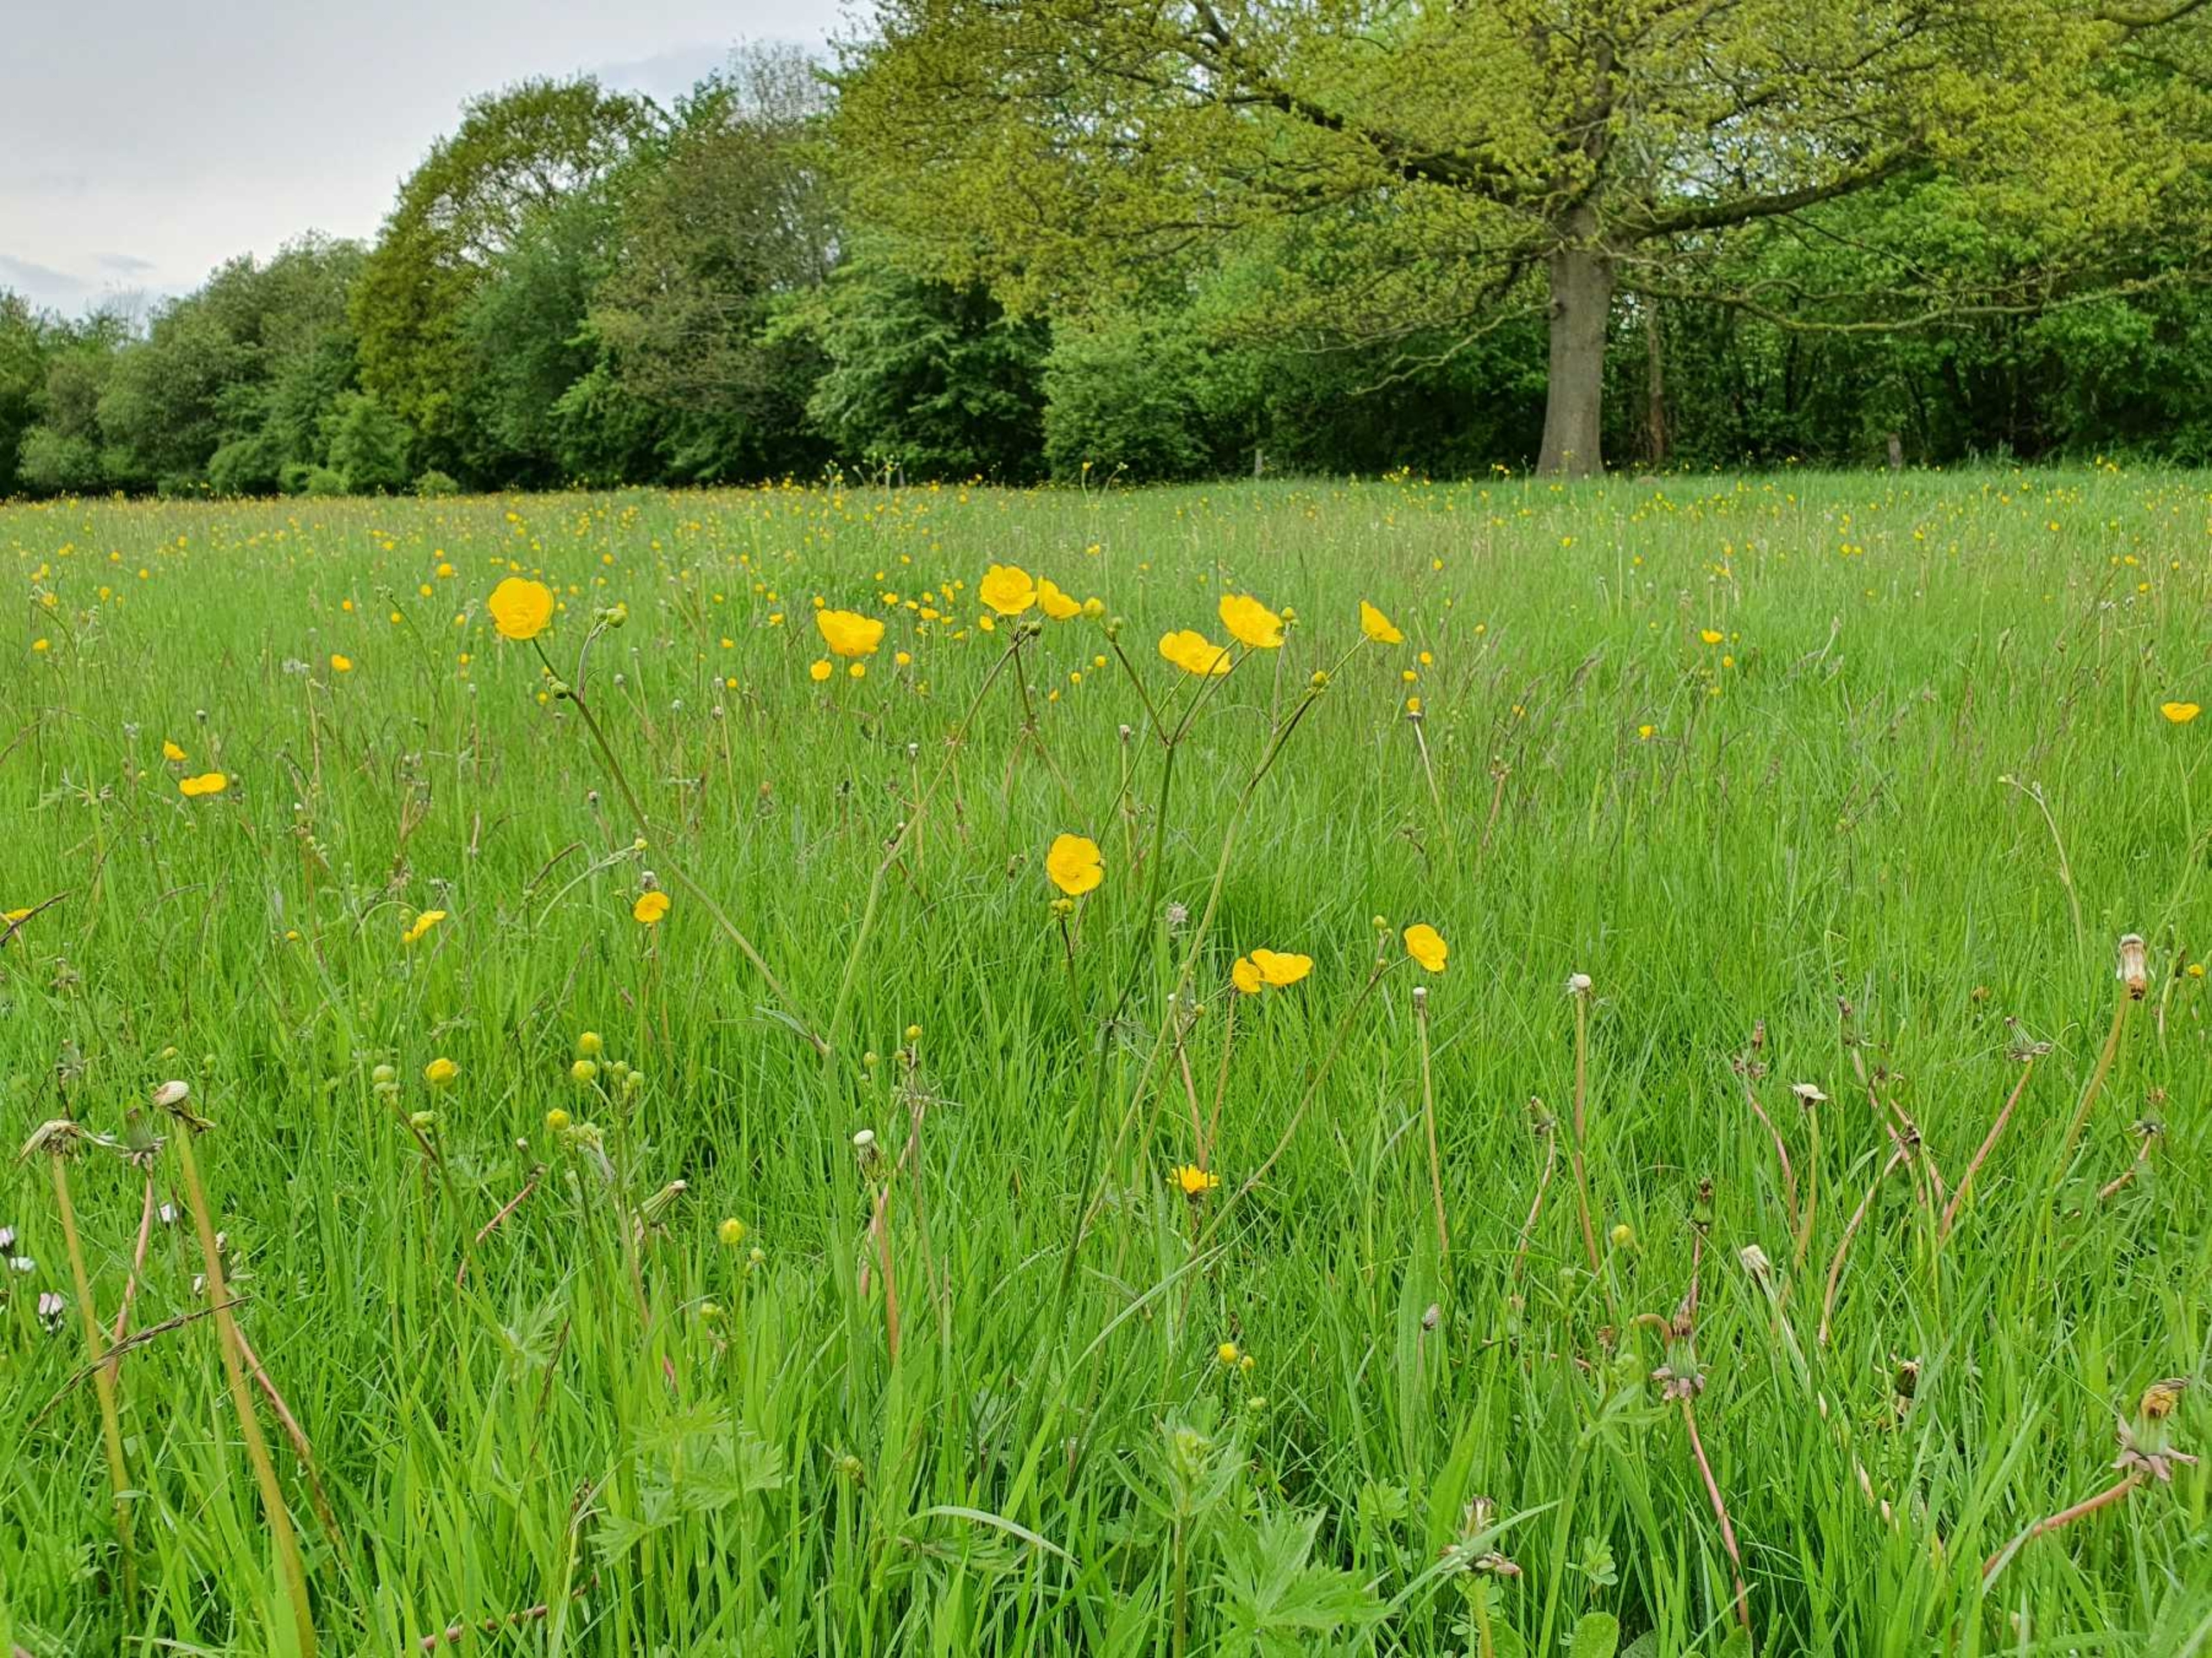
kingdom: Plantae
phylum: Tracheophyta
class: Magnoliopsida
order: Ranunculales
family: Ranunculaceae
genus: Ranunculus
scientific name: Ranunculus acris
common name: Bidende ranunkel
